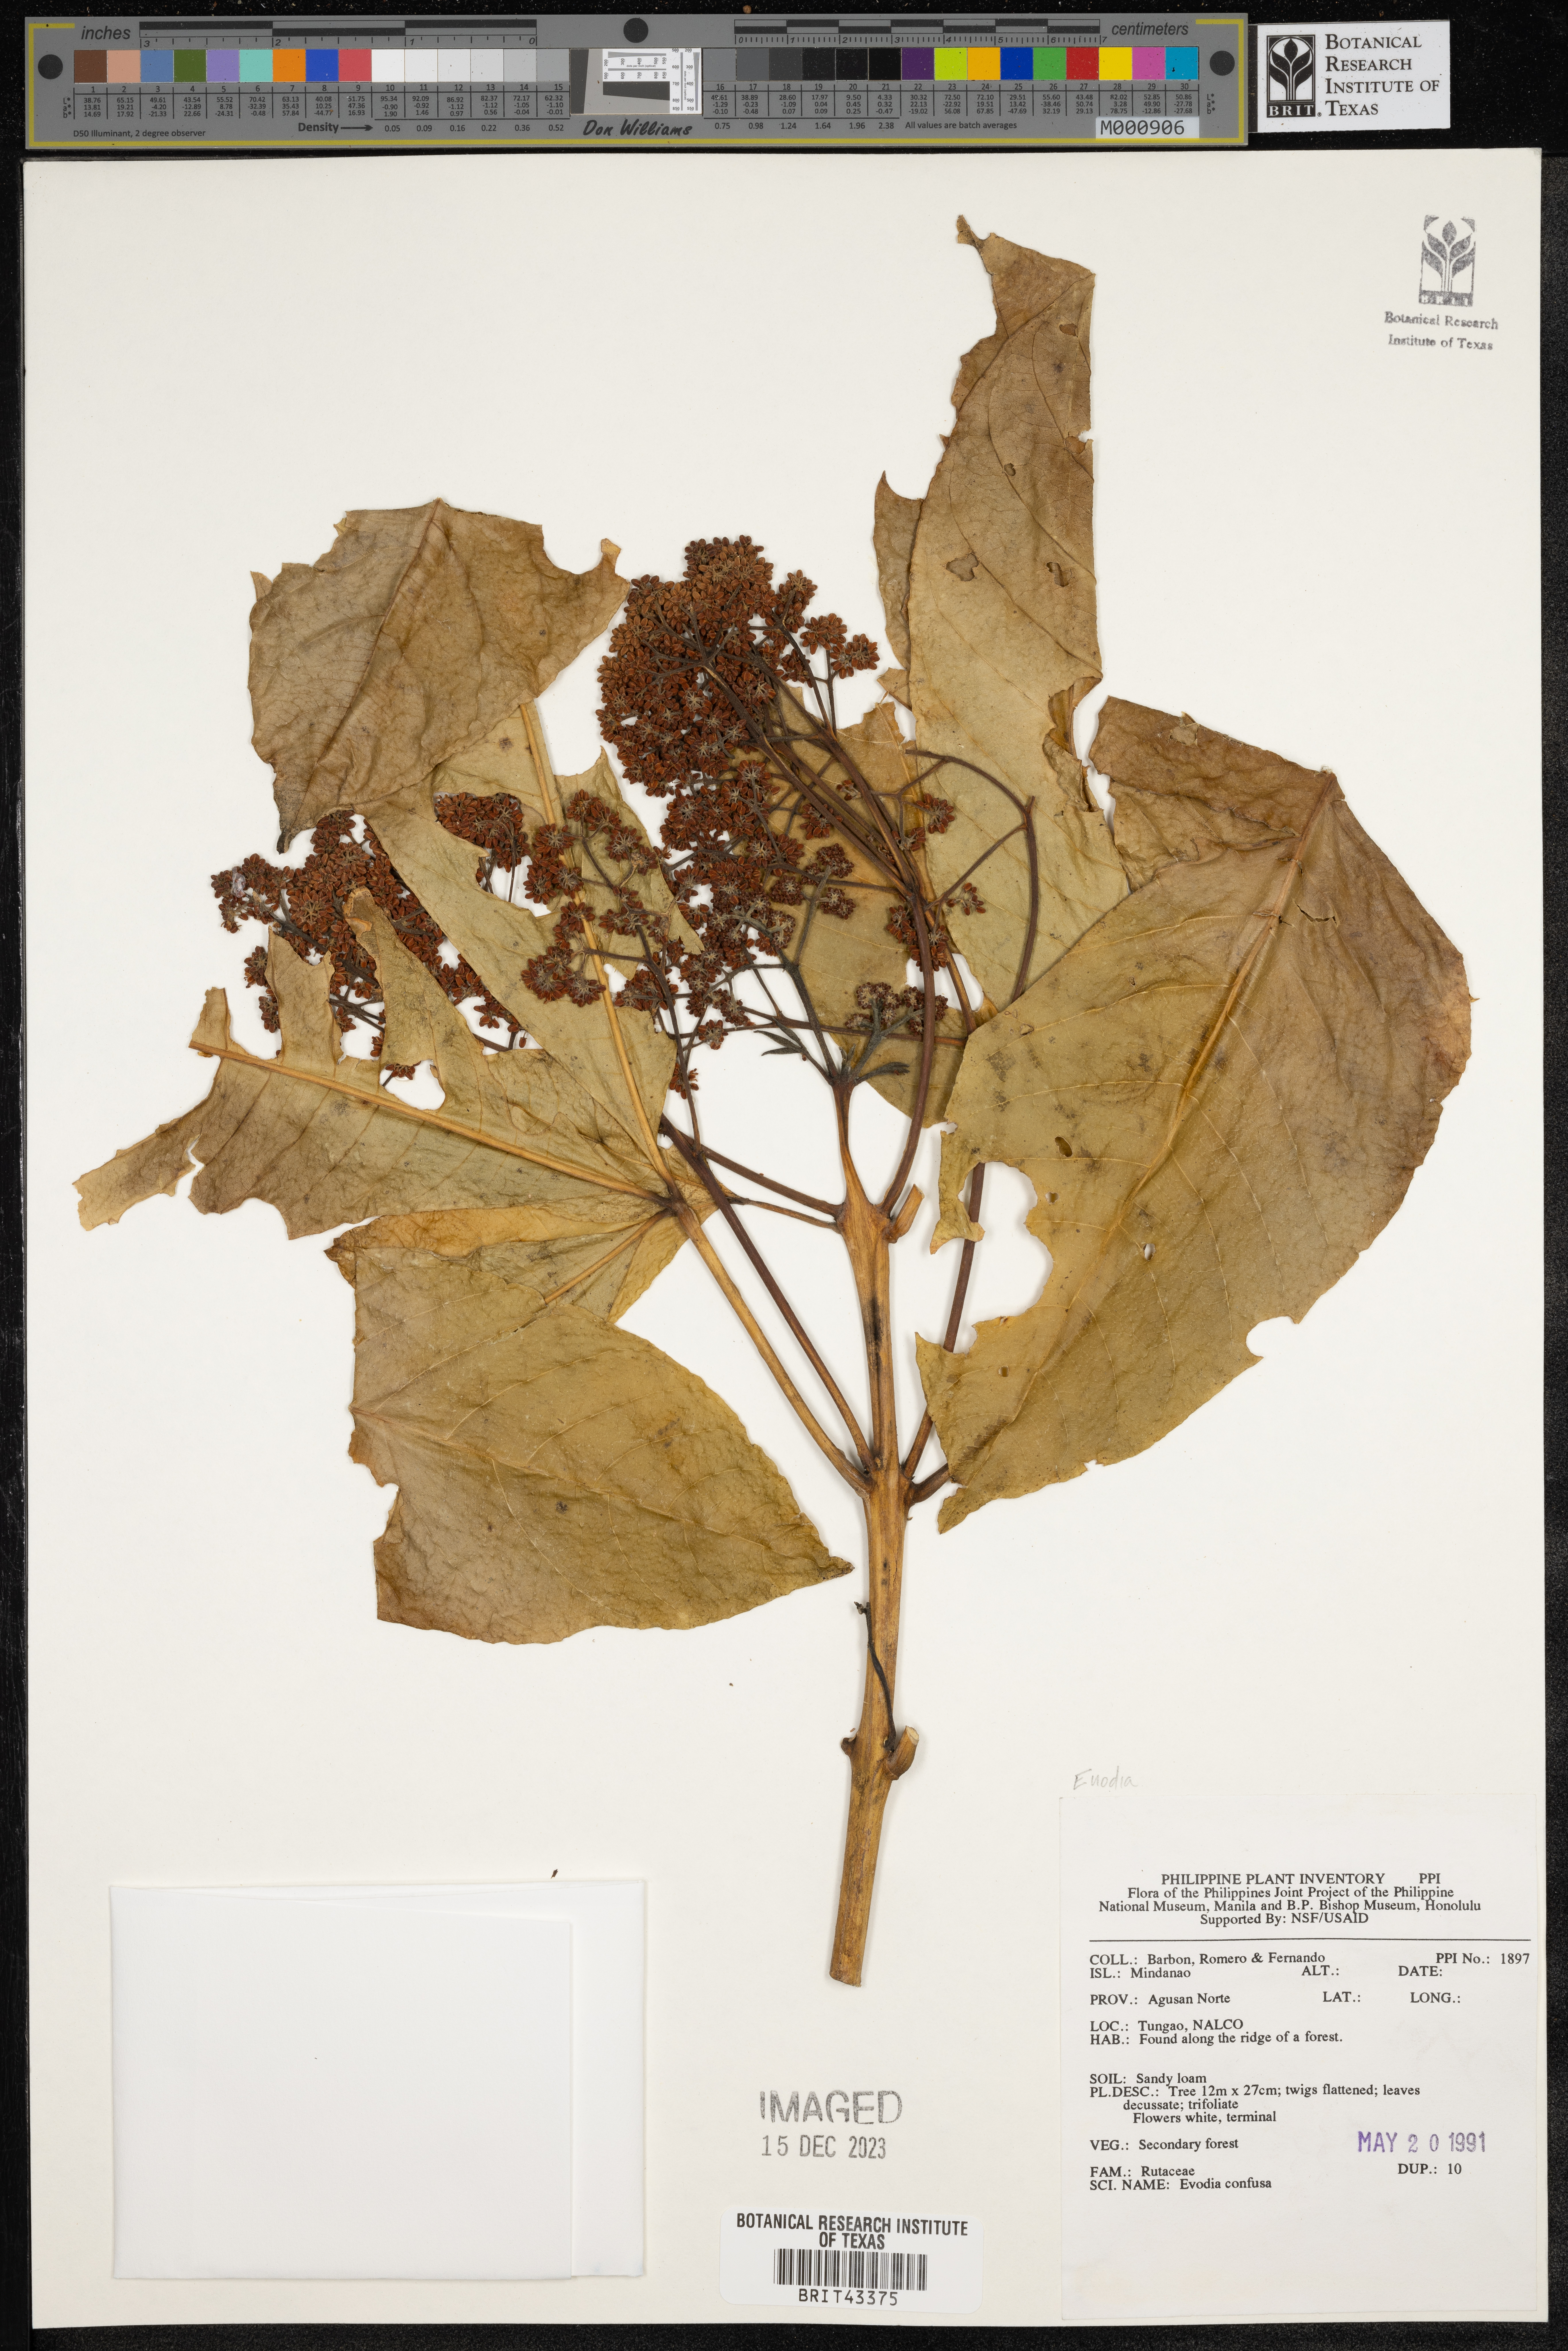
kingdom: Plantae
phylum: Tracheophyta
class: Magnoliopsida
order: Sapindales
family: Rutaceae
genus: Melicope
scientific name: Melicope frutescens
